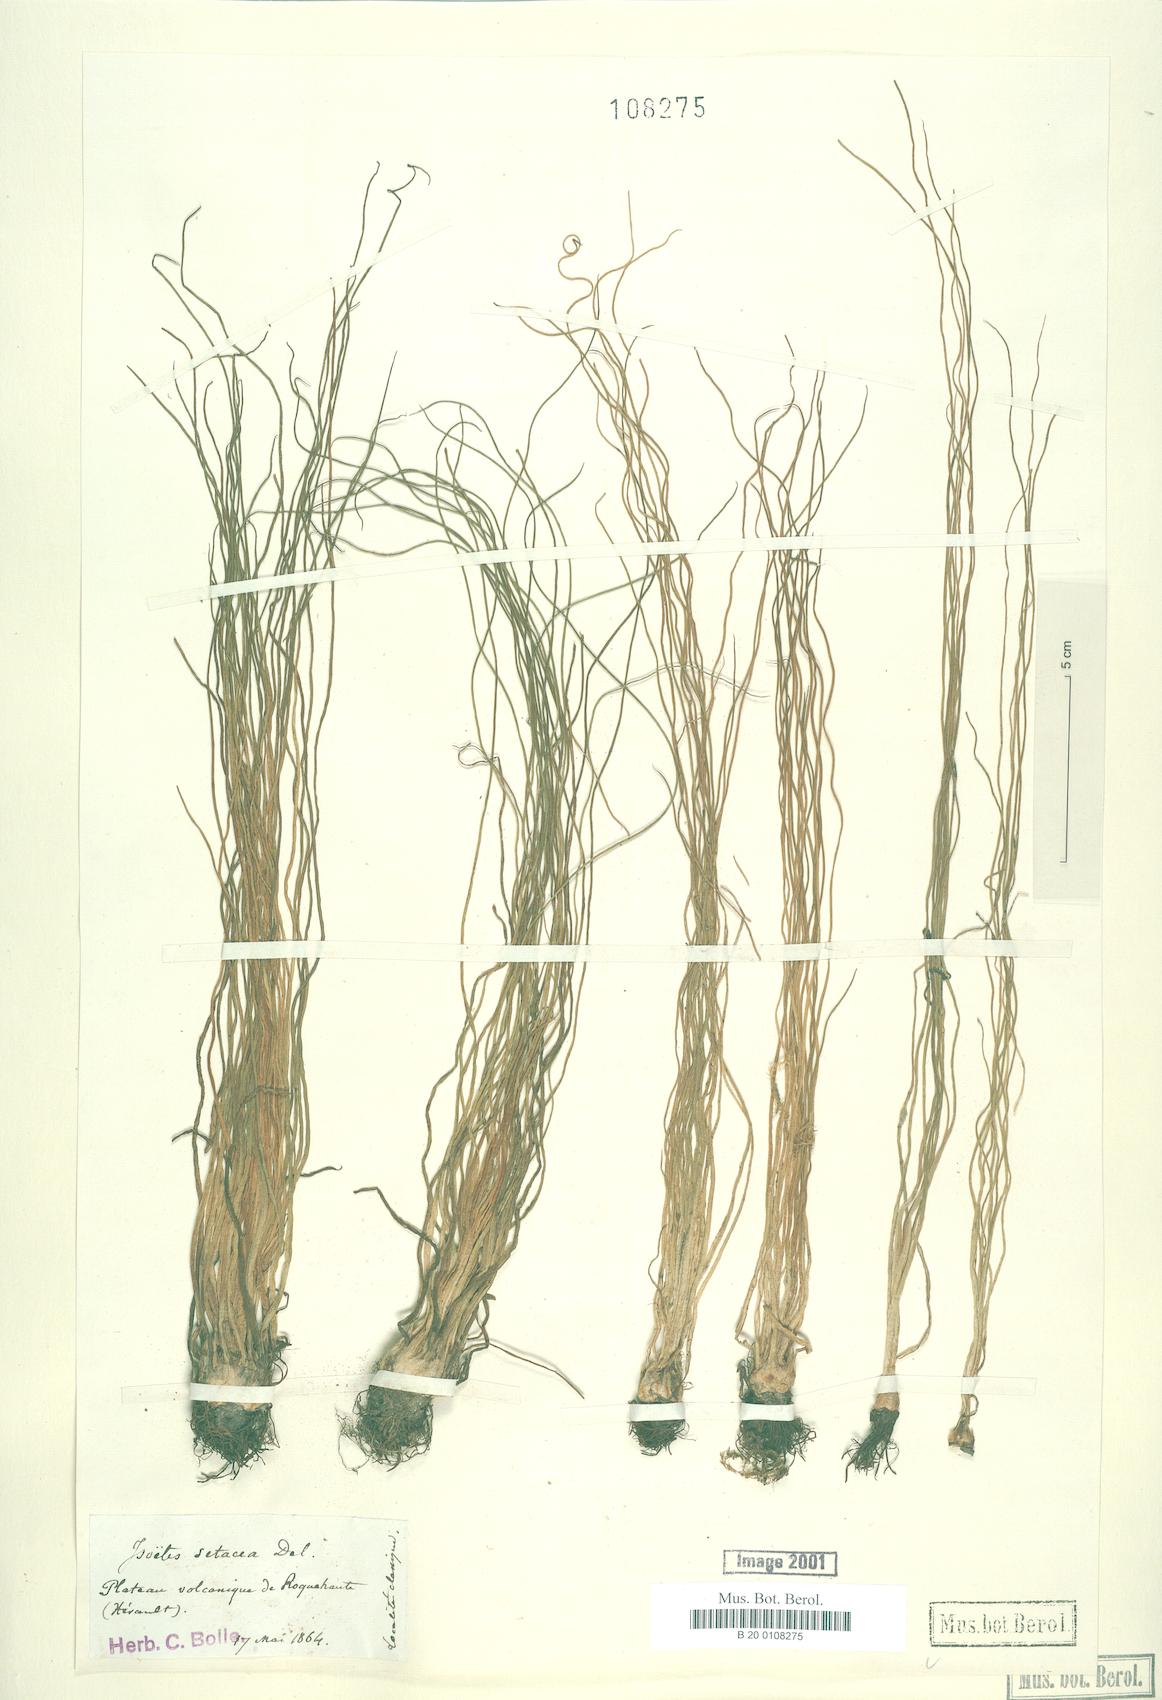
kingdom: Plantae
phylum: Tracheophyta
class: Lycopodiopsida
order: Isoetales
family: Isoetaceae
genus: Isoetes
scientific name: Isoetes lacustris
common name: Common quillwort
